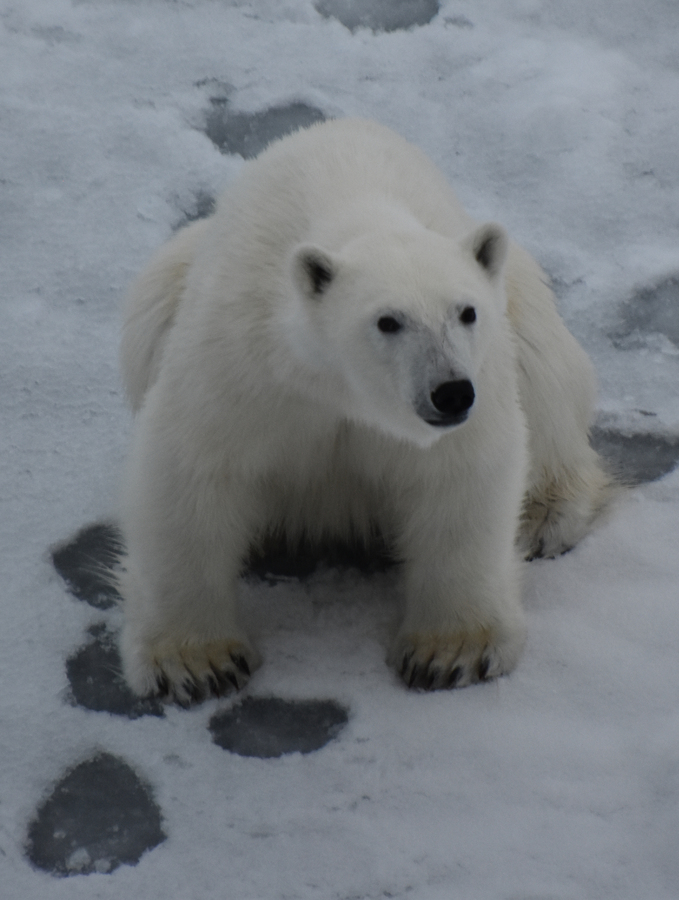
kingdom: Animalia
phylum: Chordata
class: Mammalia
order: Carnivora
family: Ursidae
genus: Ursus
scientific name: Ursus maritimus
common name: Polar Bear
